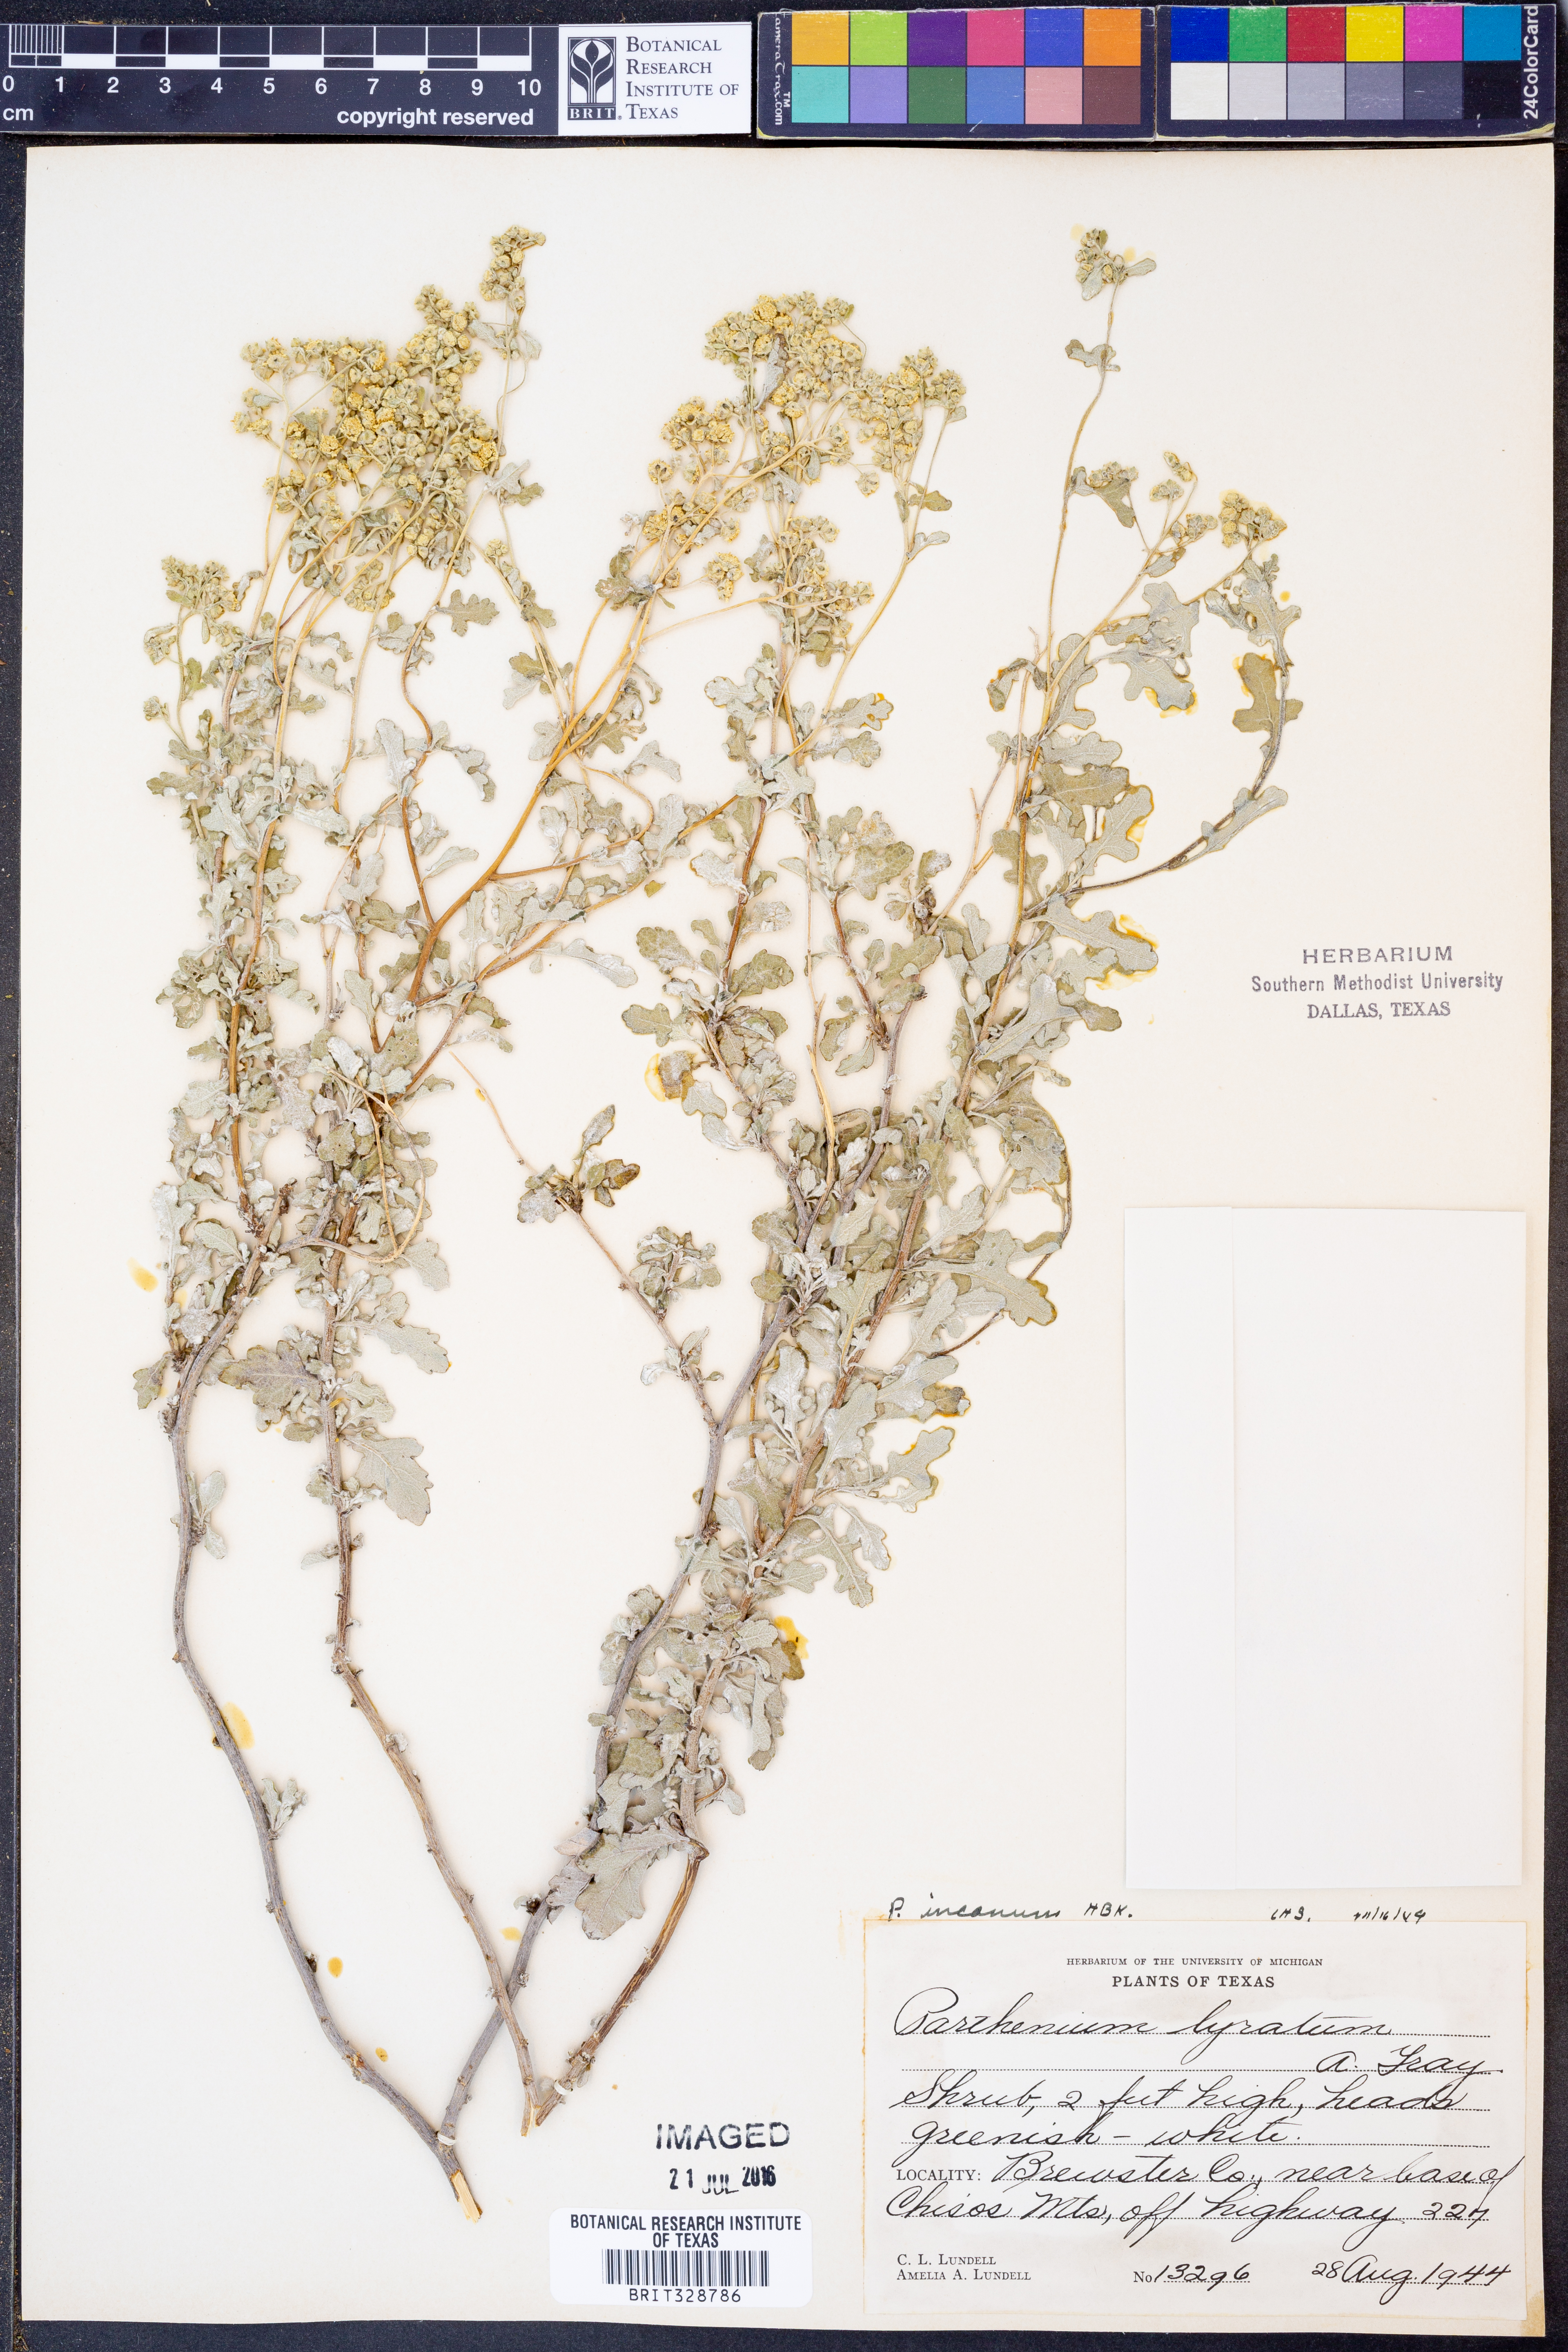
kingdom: Plantae
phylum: Tracheophyta
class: Magnoliopsida
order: Asterales
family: Asteraceae
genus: Parthenium
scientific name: Parthenium incanum
